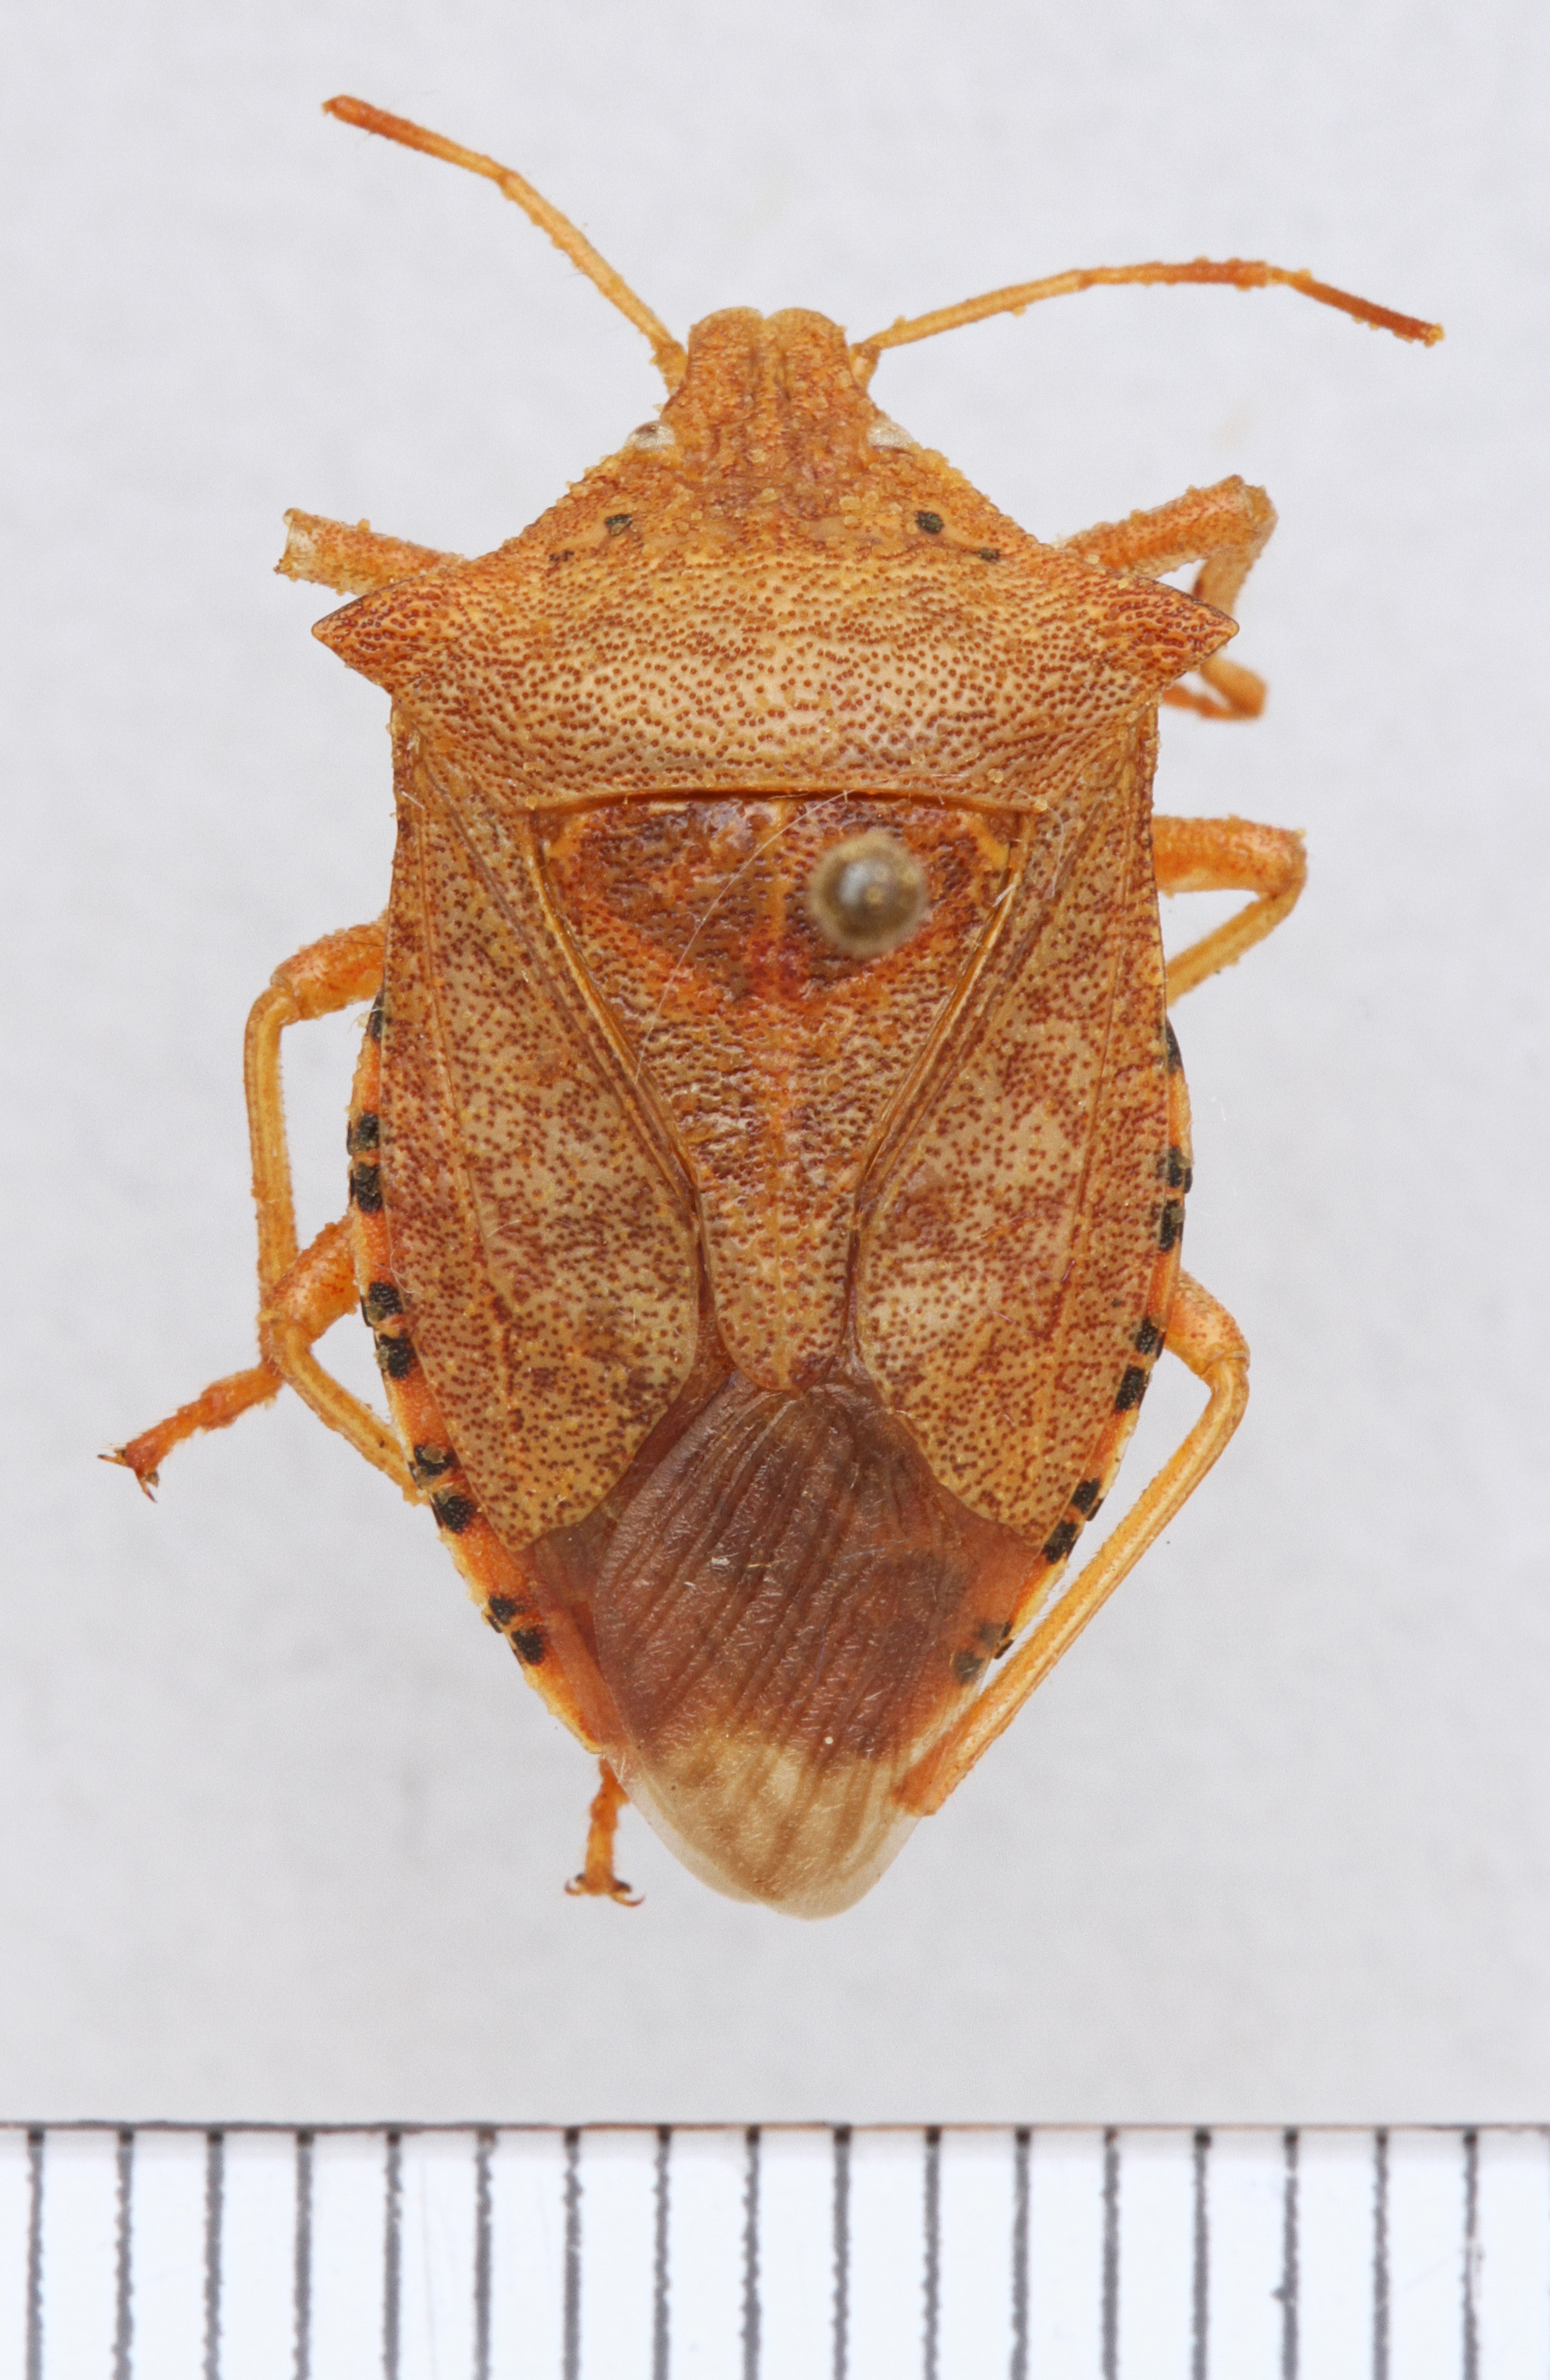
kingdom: Animalia
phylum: Arthropoda
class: Insecta
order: Hemiptera
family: Pentatomidae
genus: Apoecilus
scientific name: Apoecilus cynicus
